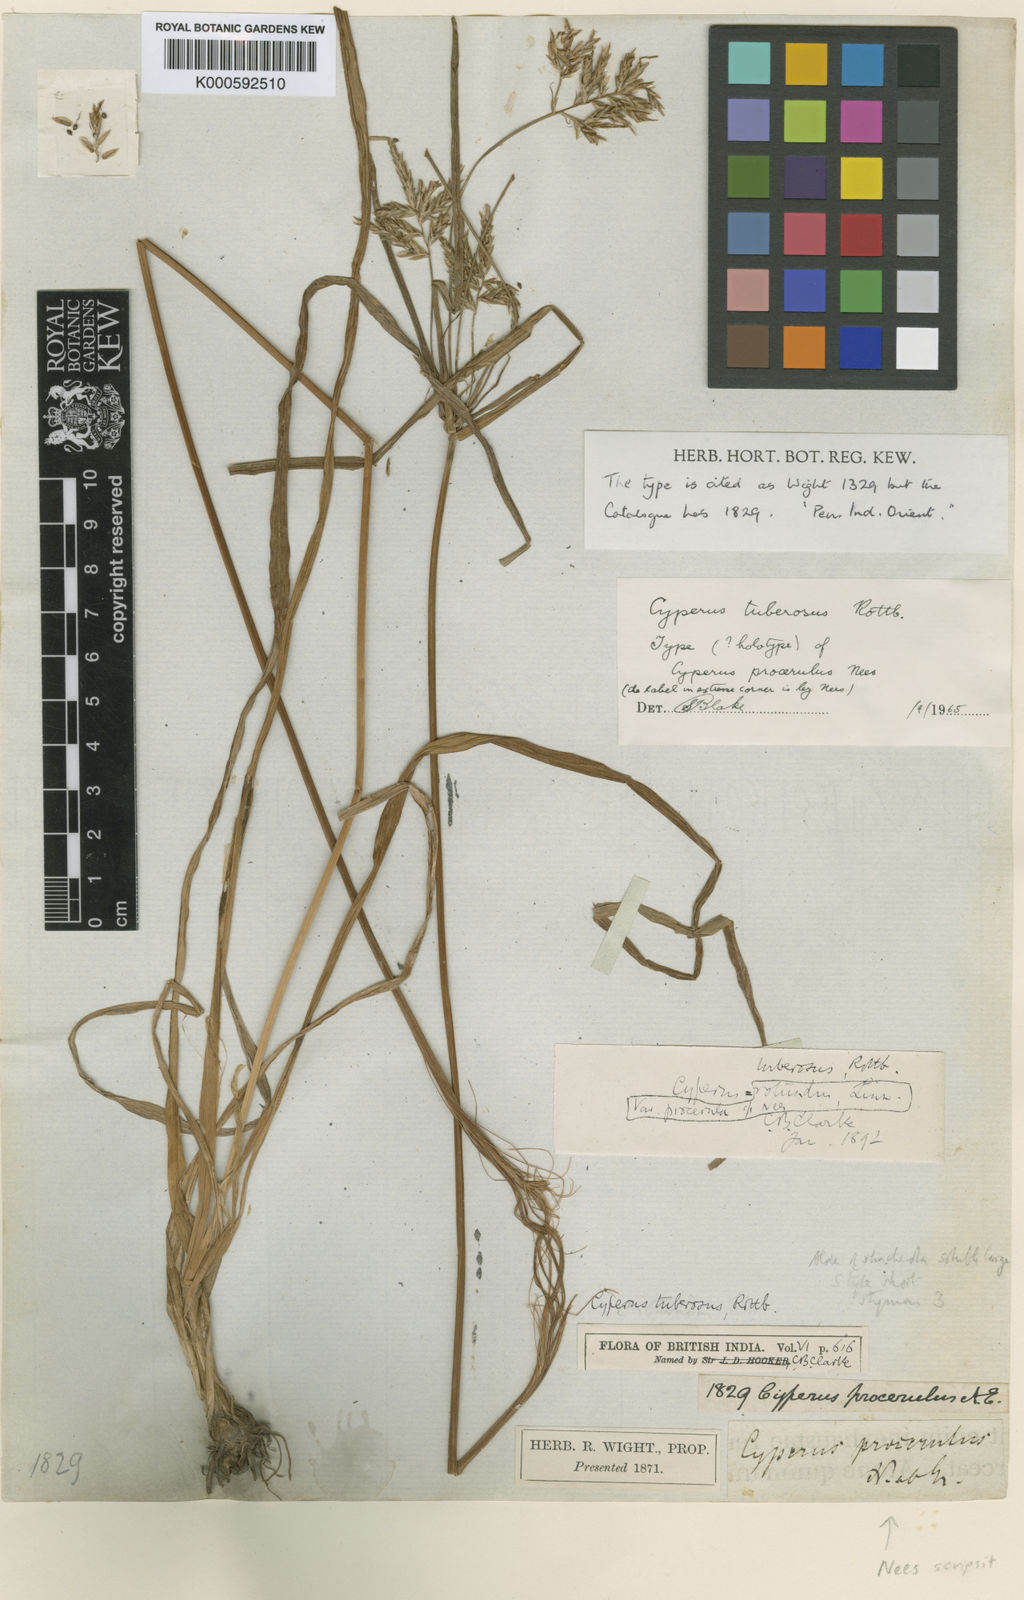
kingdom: Plantae
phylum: Tracheophyta
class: Liliopsida
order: Poales
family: Cyperaceae
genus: Cyperus
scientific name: Cyperus rotundus
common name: Nutgrass
